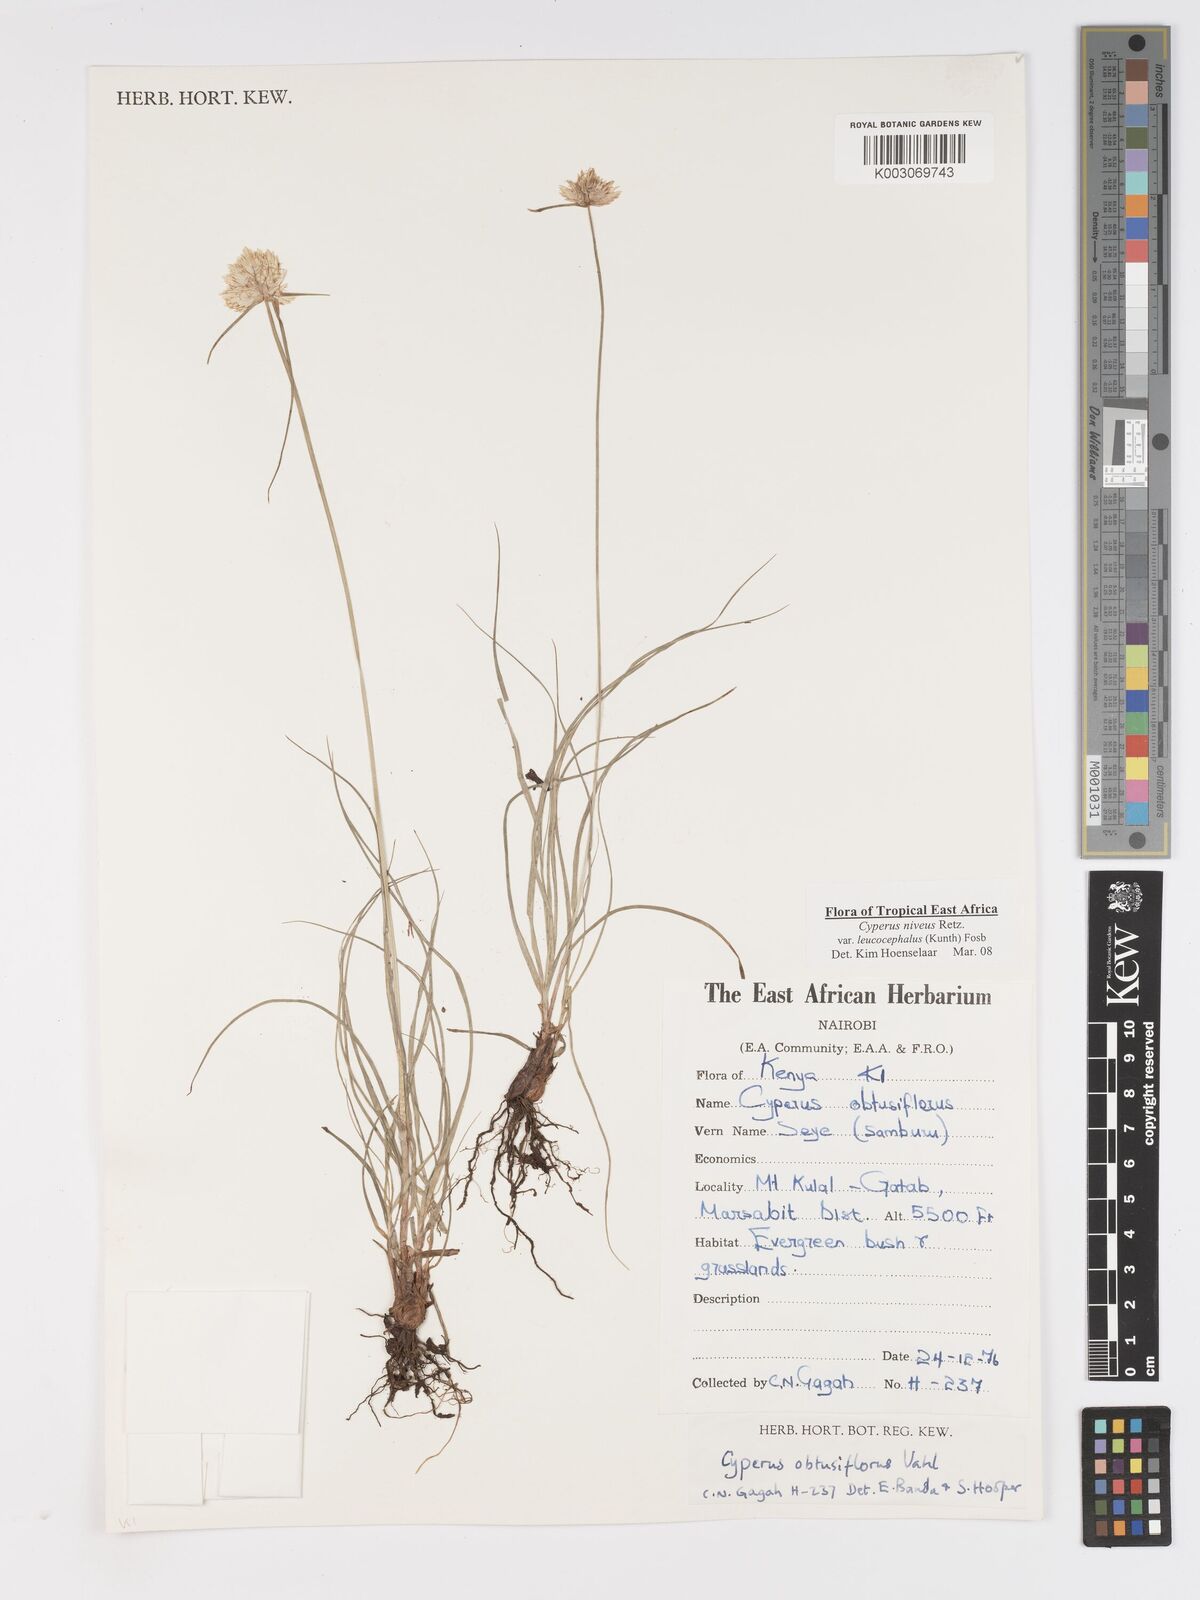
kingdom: Plantae
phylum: Tracheophyta
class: Liliopsida
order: Poales
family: Cyperaceae
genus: Cyperus
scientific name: Cyperus niveus
